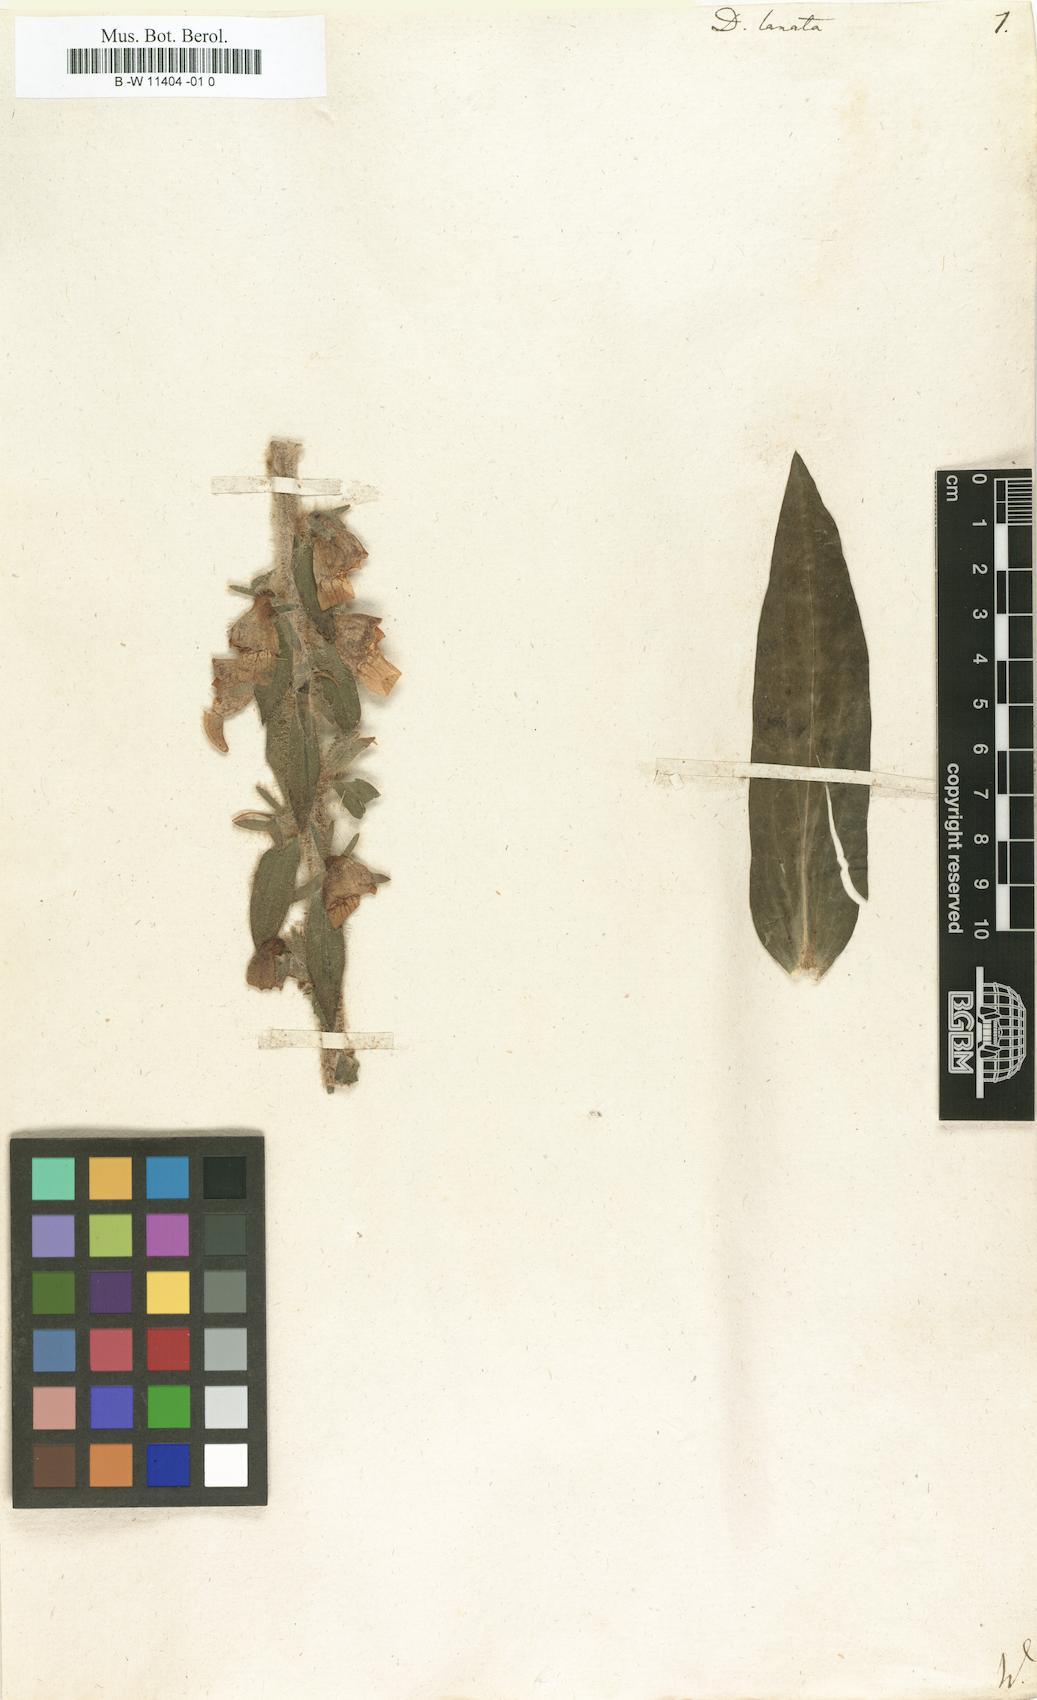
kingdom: Plantae
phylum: Tracheophyta
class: Magnoliopsida
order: Lamiales
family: Plantaginaceae
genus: Digitalis
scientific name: Digitalis lanata
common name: Grecian foxglove
